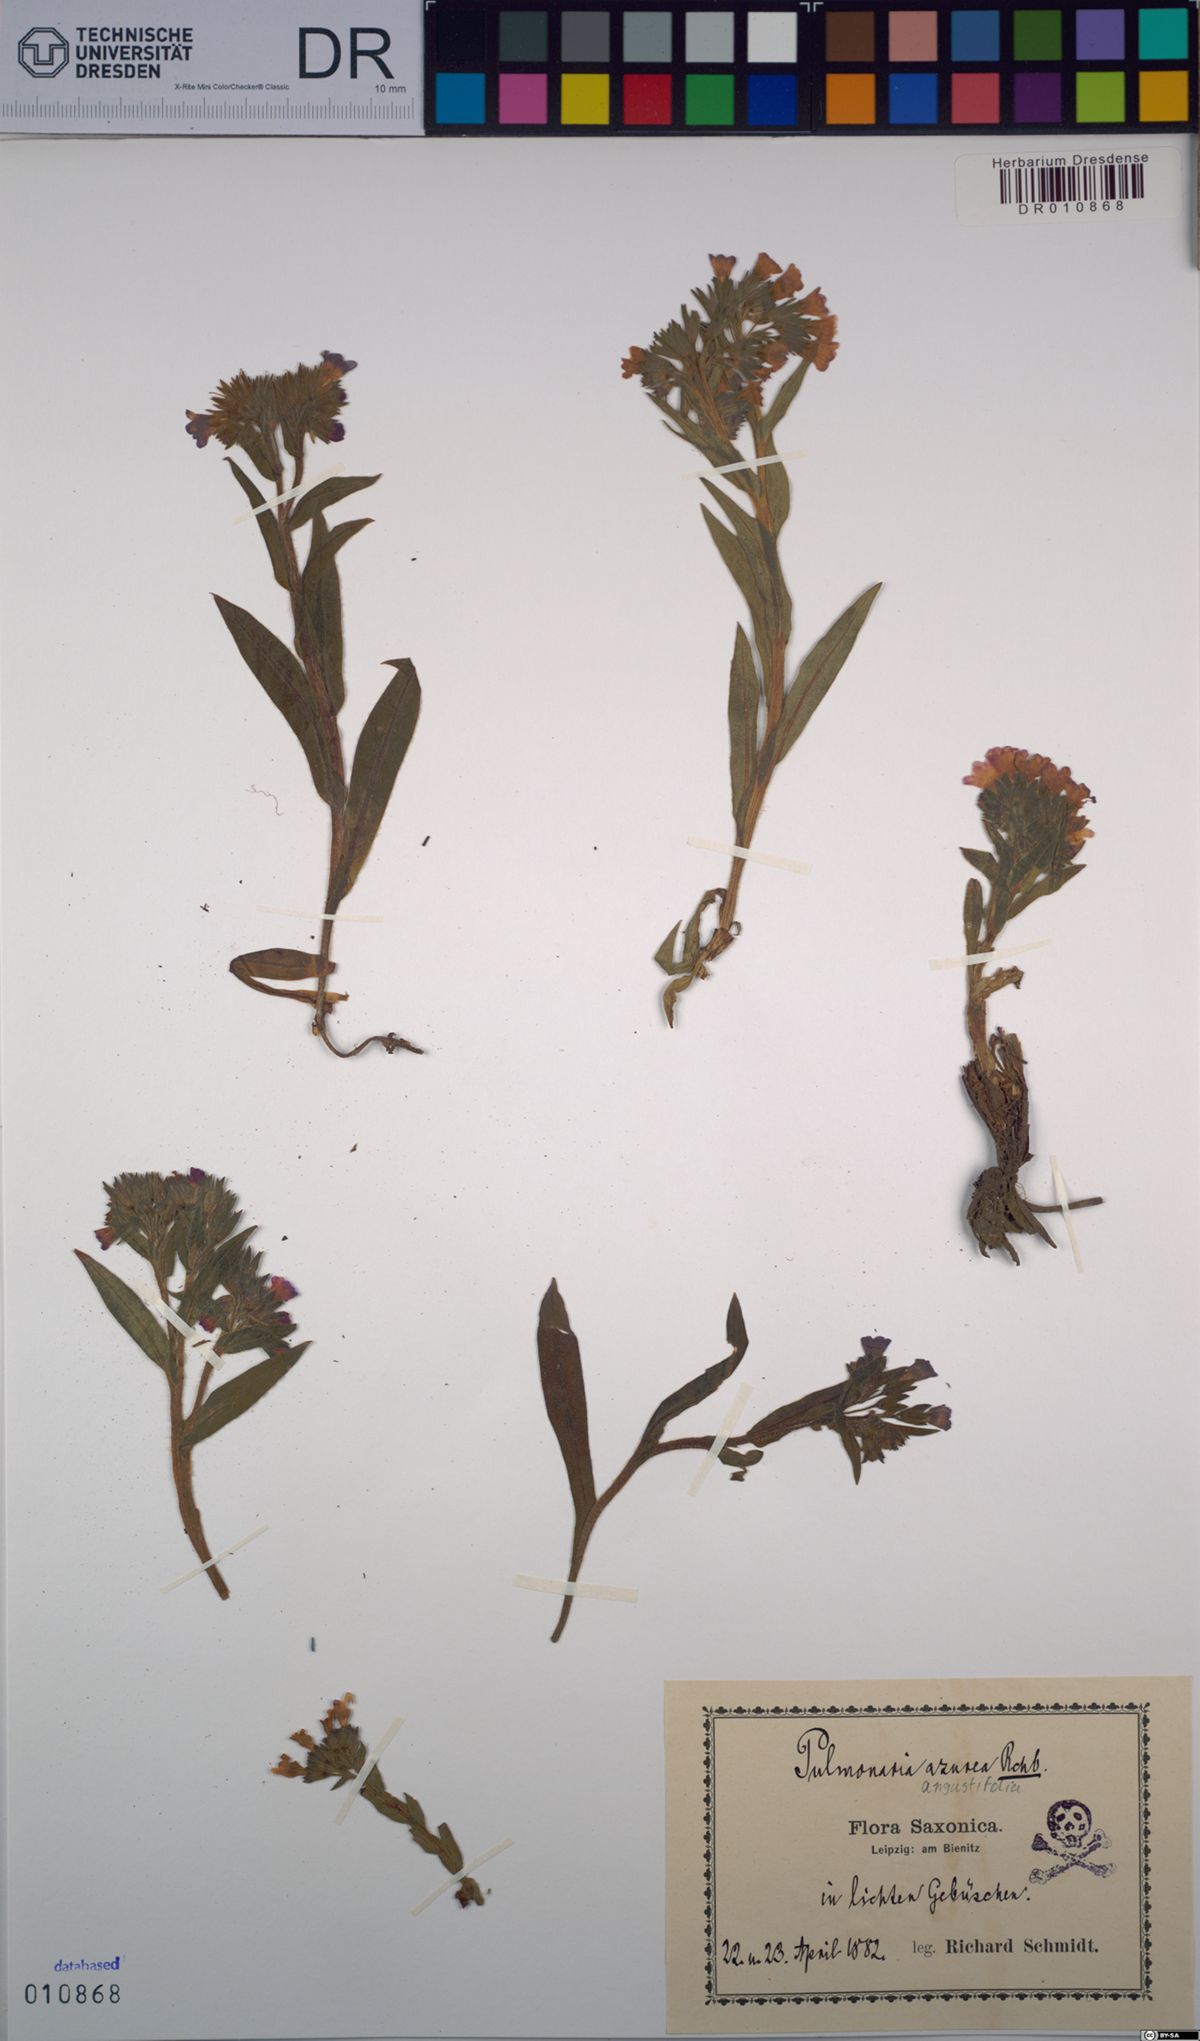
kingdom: Plantae
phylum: Tracheophyta
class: Magnoliopsida
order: Boraginales
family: Boraginaceae
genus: Pulmonaria
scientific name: Pulmonaria angustifolia
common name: Blue cowslip
